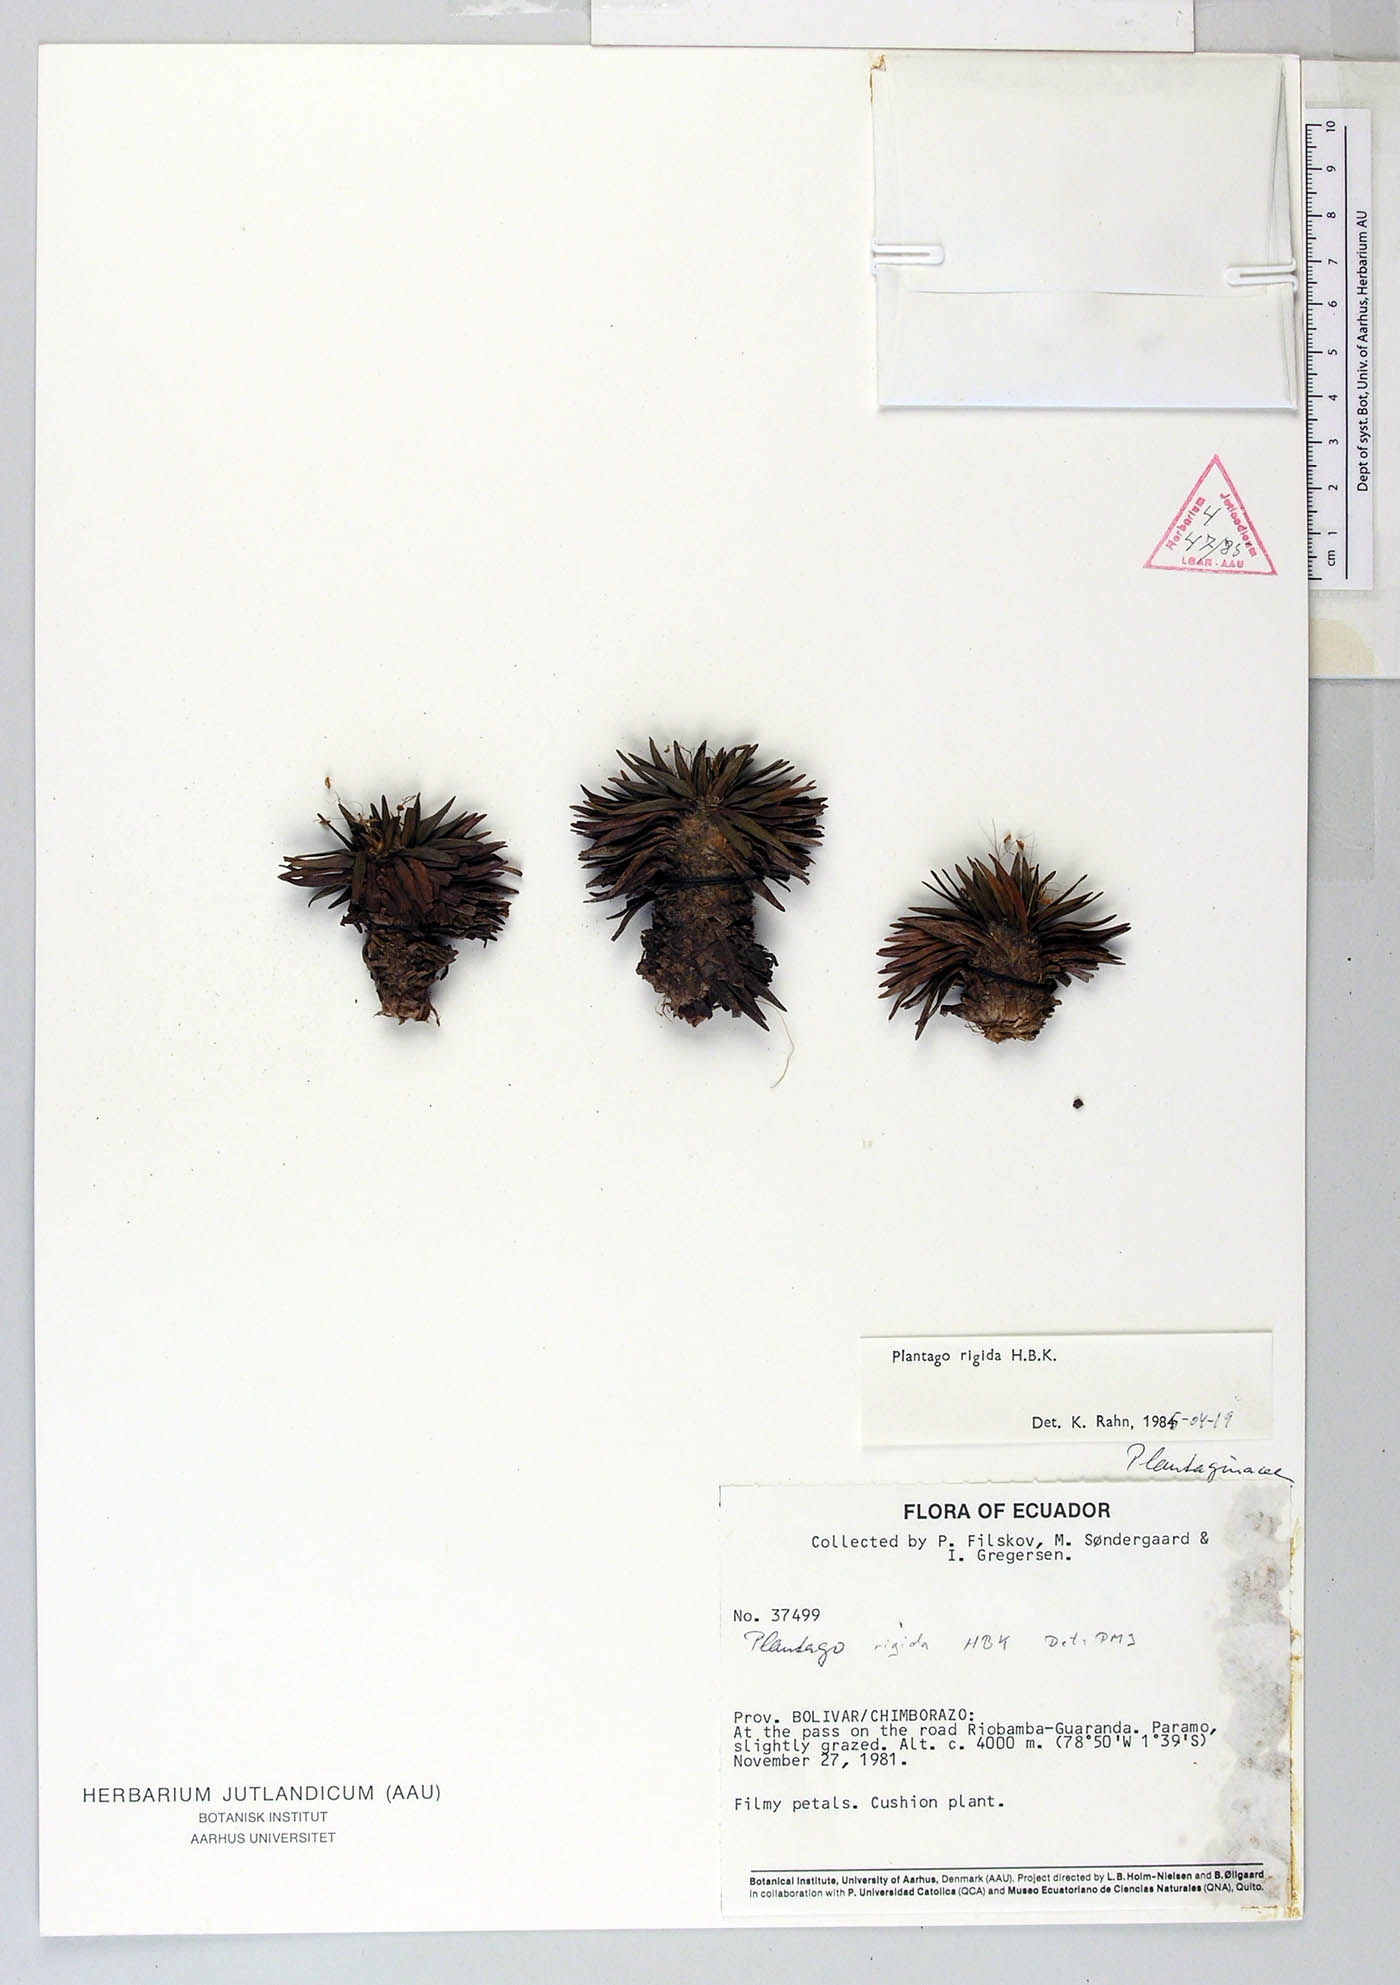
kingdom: Plantae
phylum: Tracheophyta
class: Magnoliopsida
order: Lamiales
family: Plantaginaceae
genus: Plantago
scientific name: Plantago rigida
